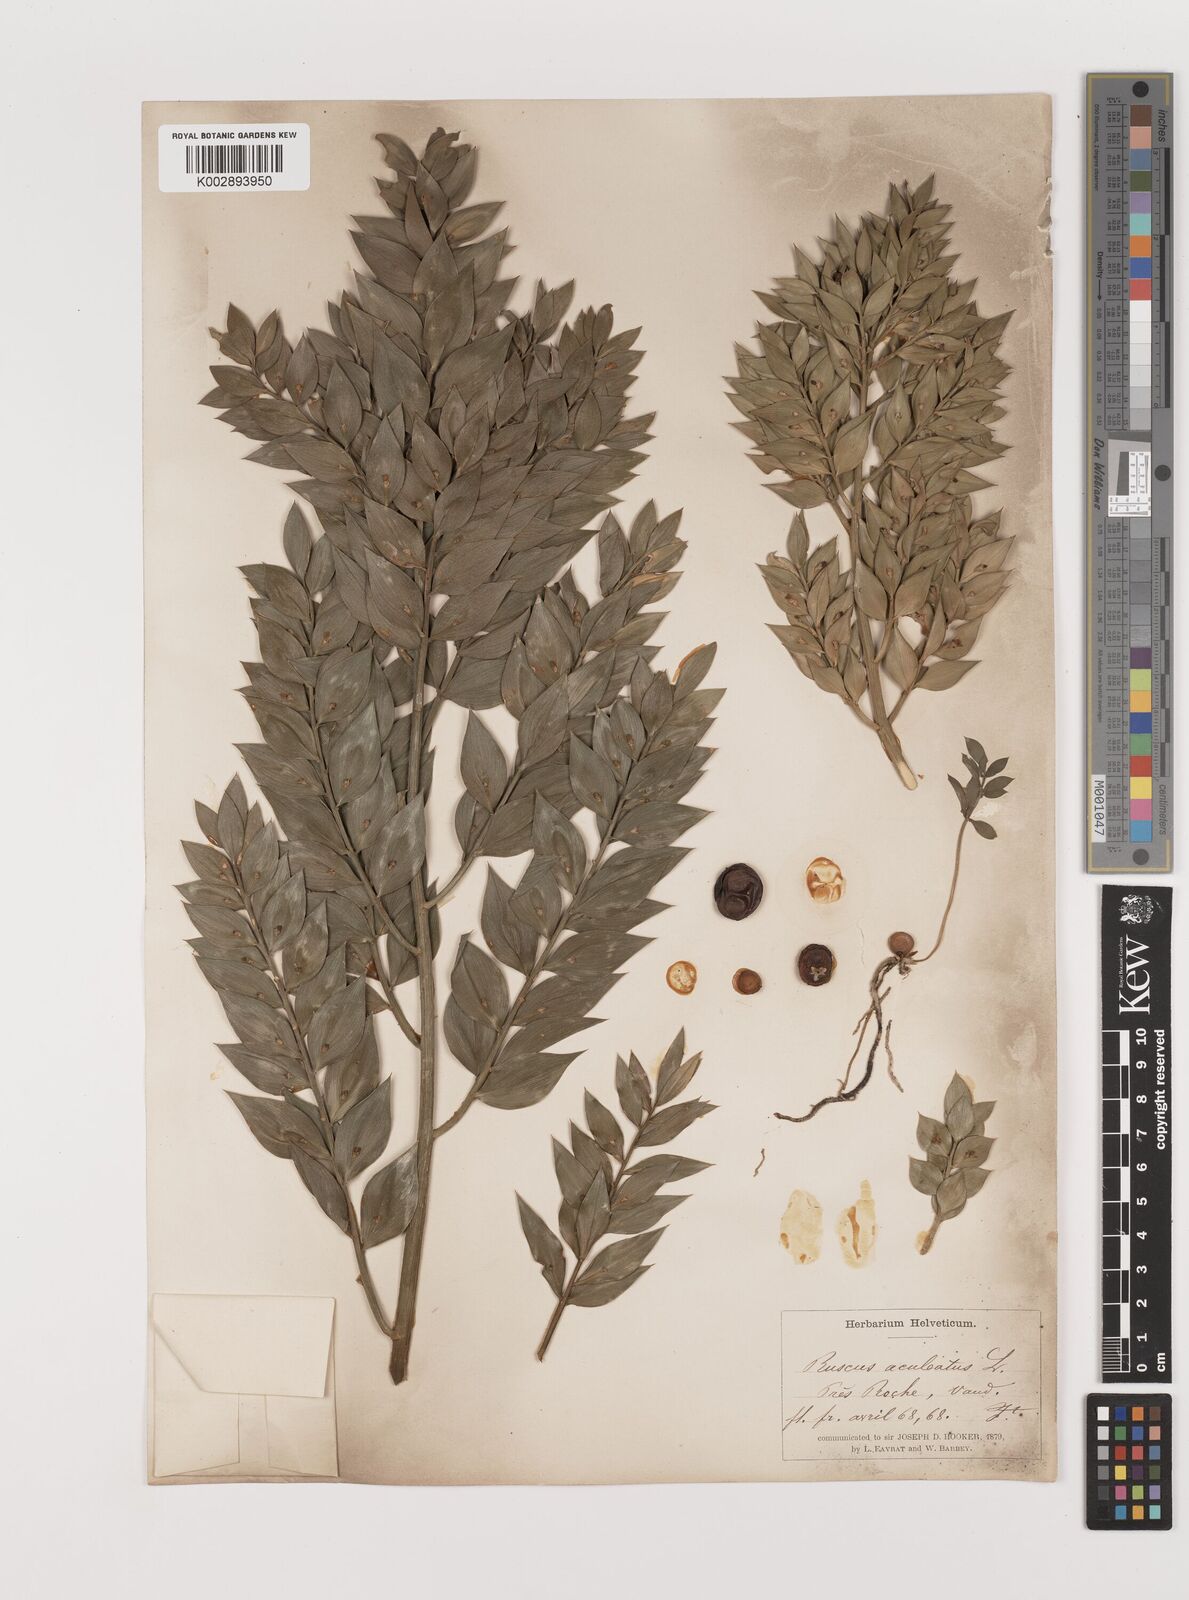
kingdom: Plantae
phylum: Tracheophyta
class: Liliopsida
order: Asparagales
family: Asparagaceae
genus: Ruscus
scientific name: Ruscus aculeatus
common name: Butcher's-broom
